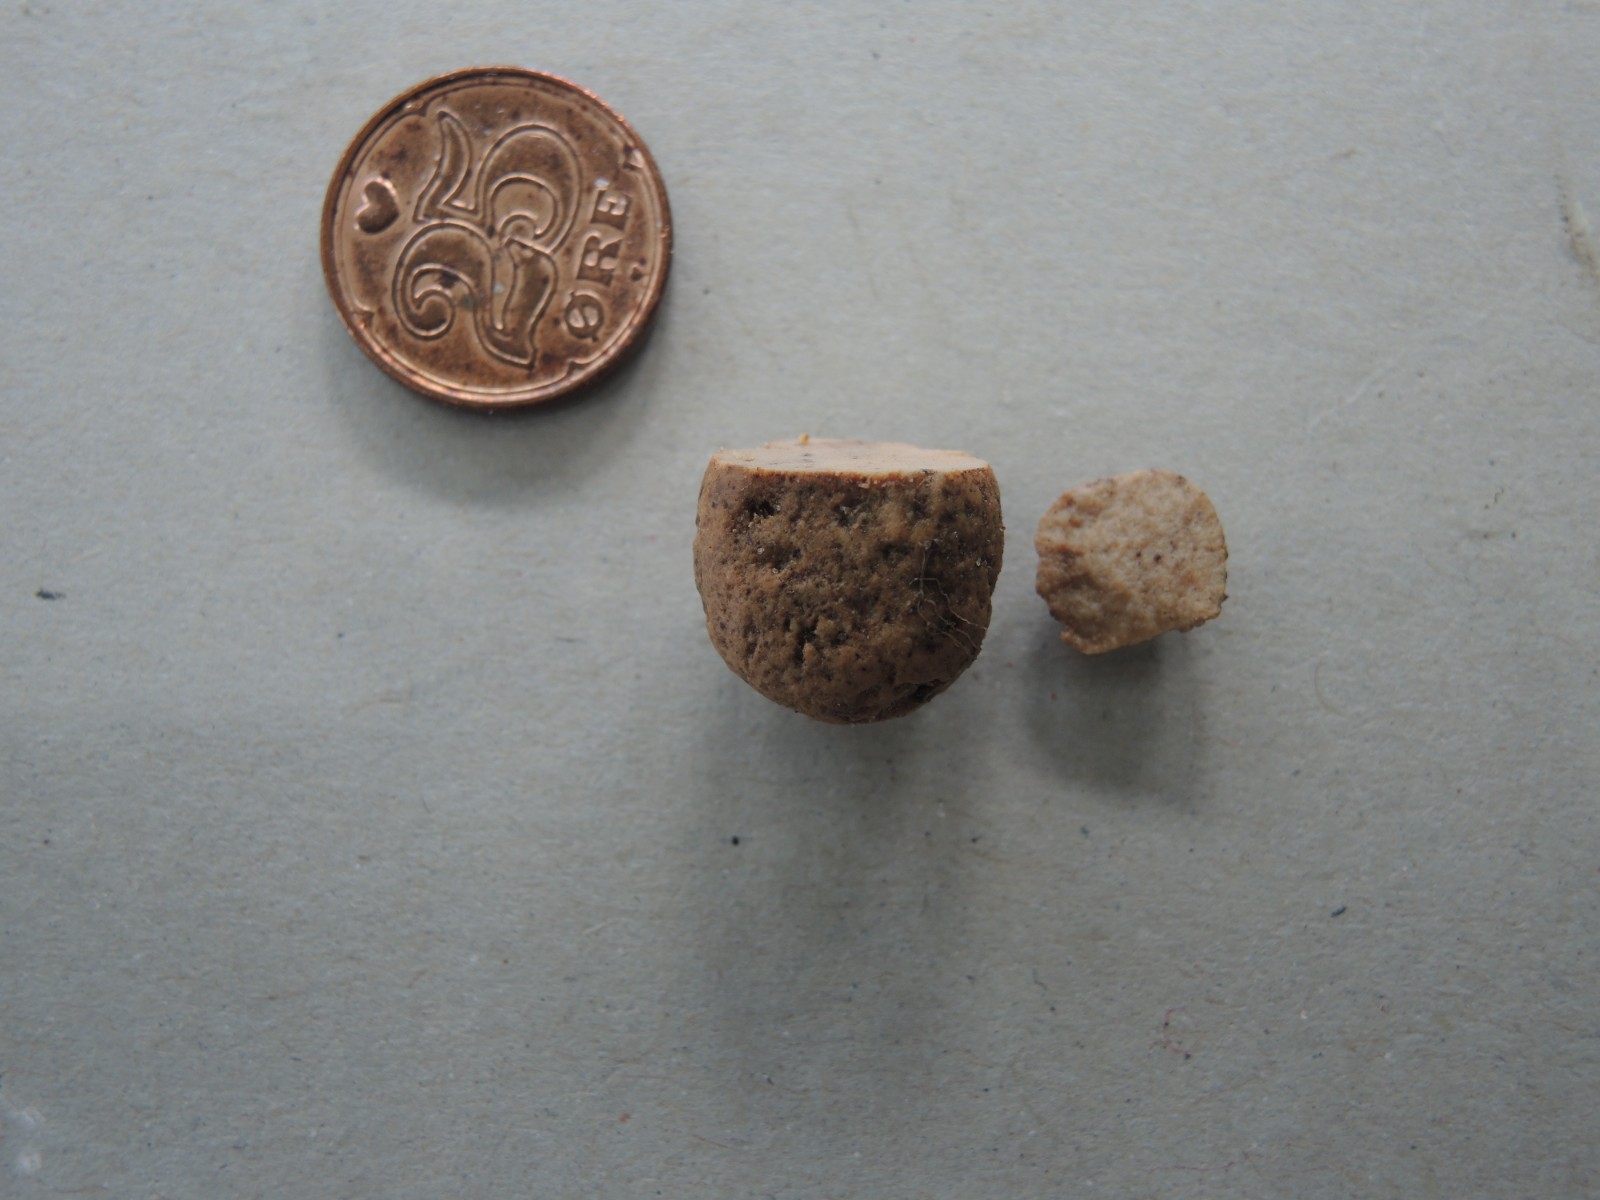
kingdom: Fungi
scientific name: Fungi
